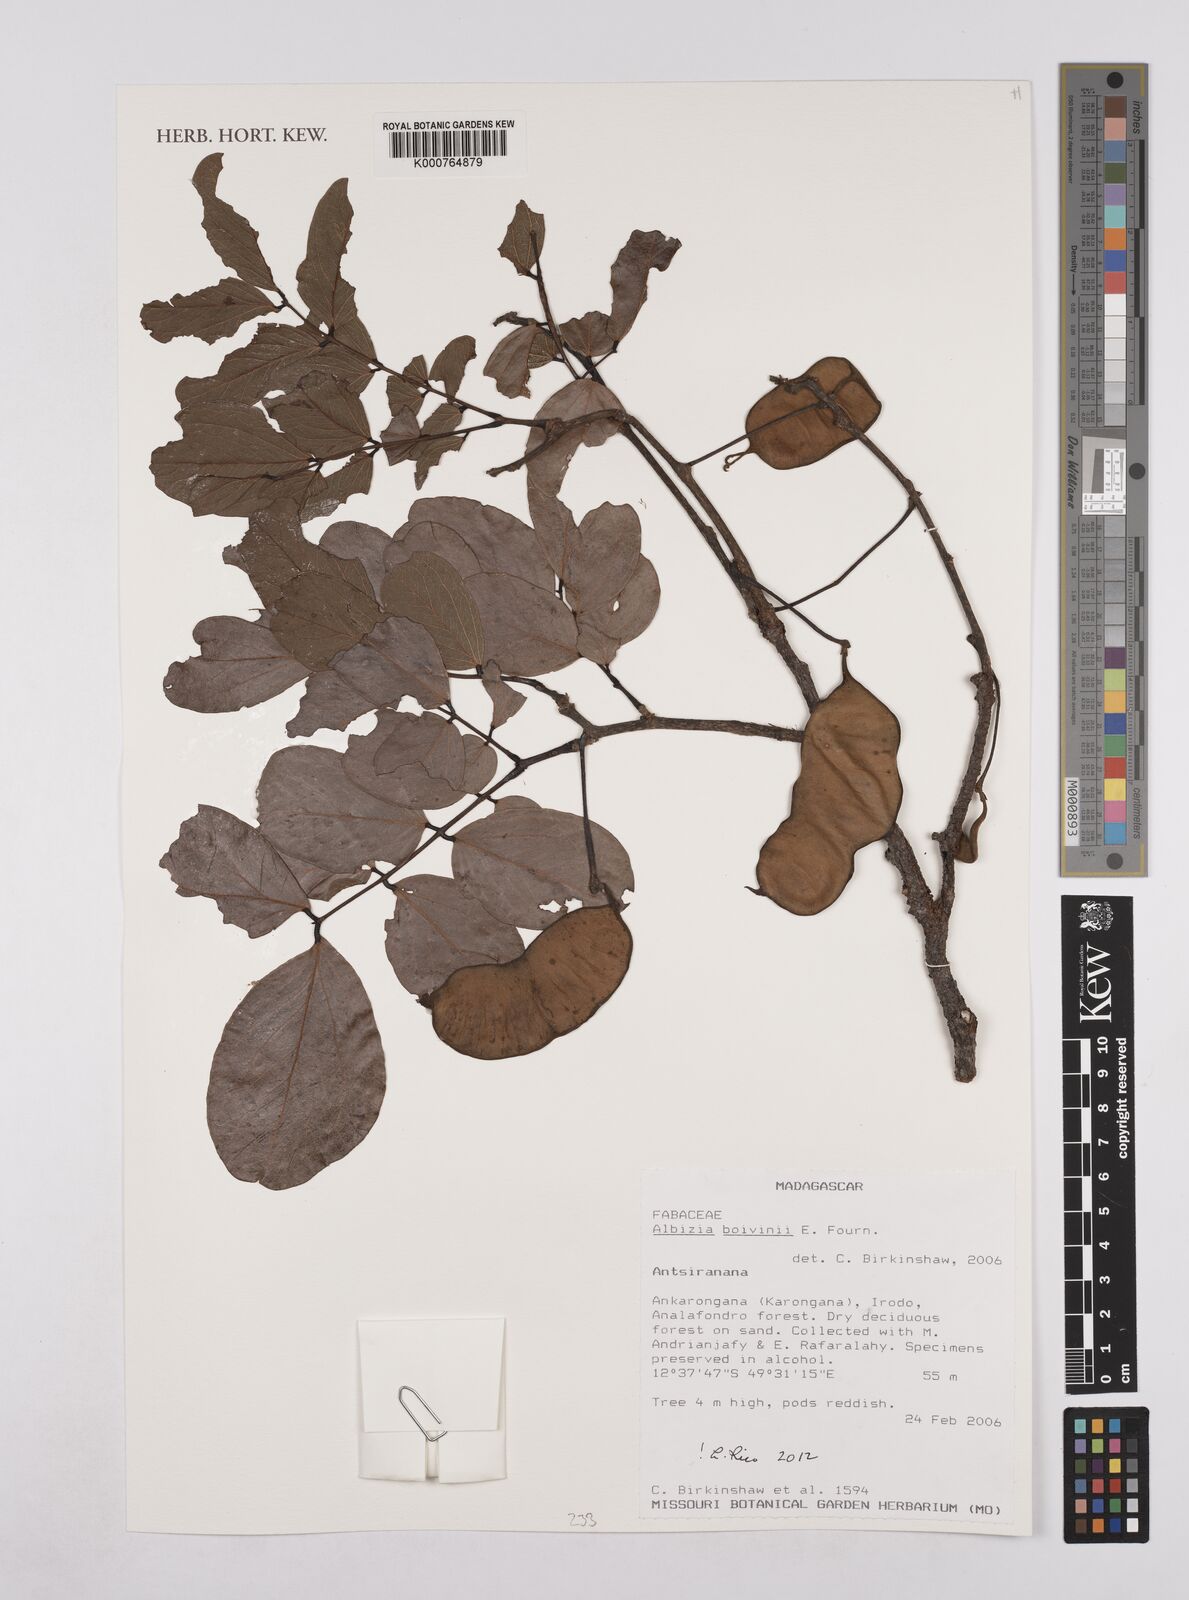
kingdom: Plantae
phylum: Tracheophyta
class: Magnoliopsida
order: Fabales
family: Fabaceae
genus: Albizia
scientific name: Albizia boivinii
